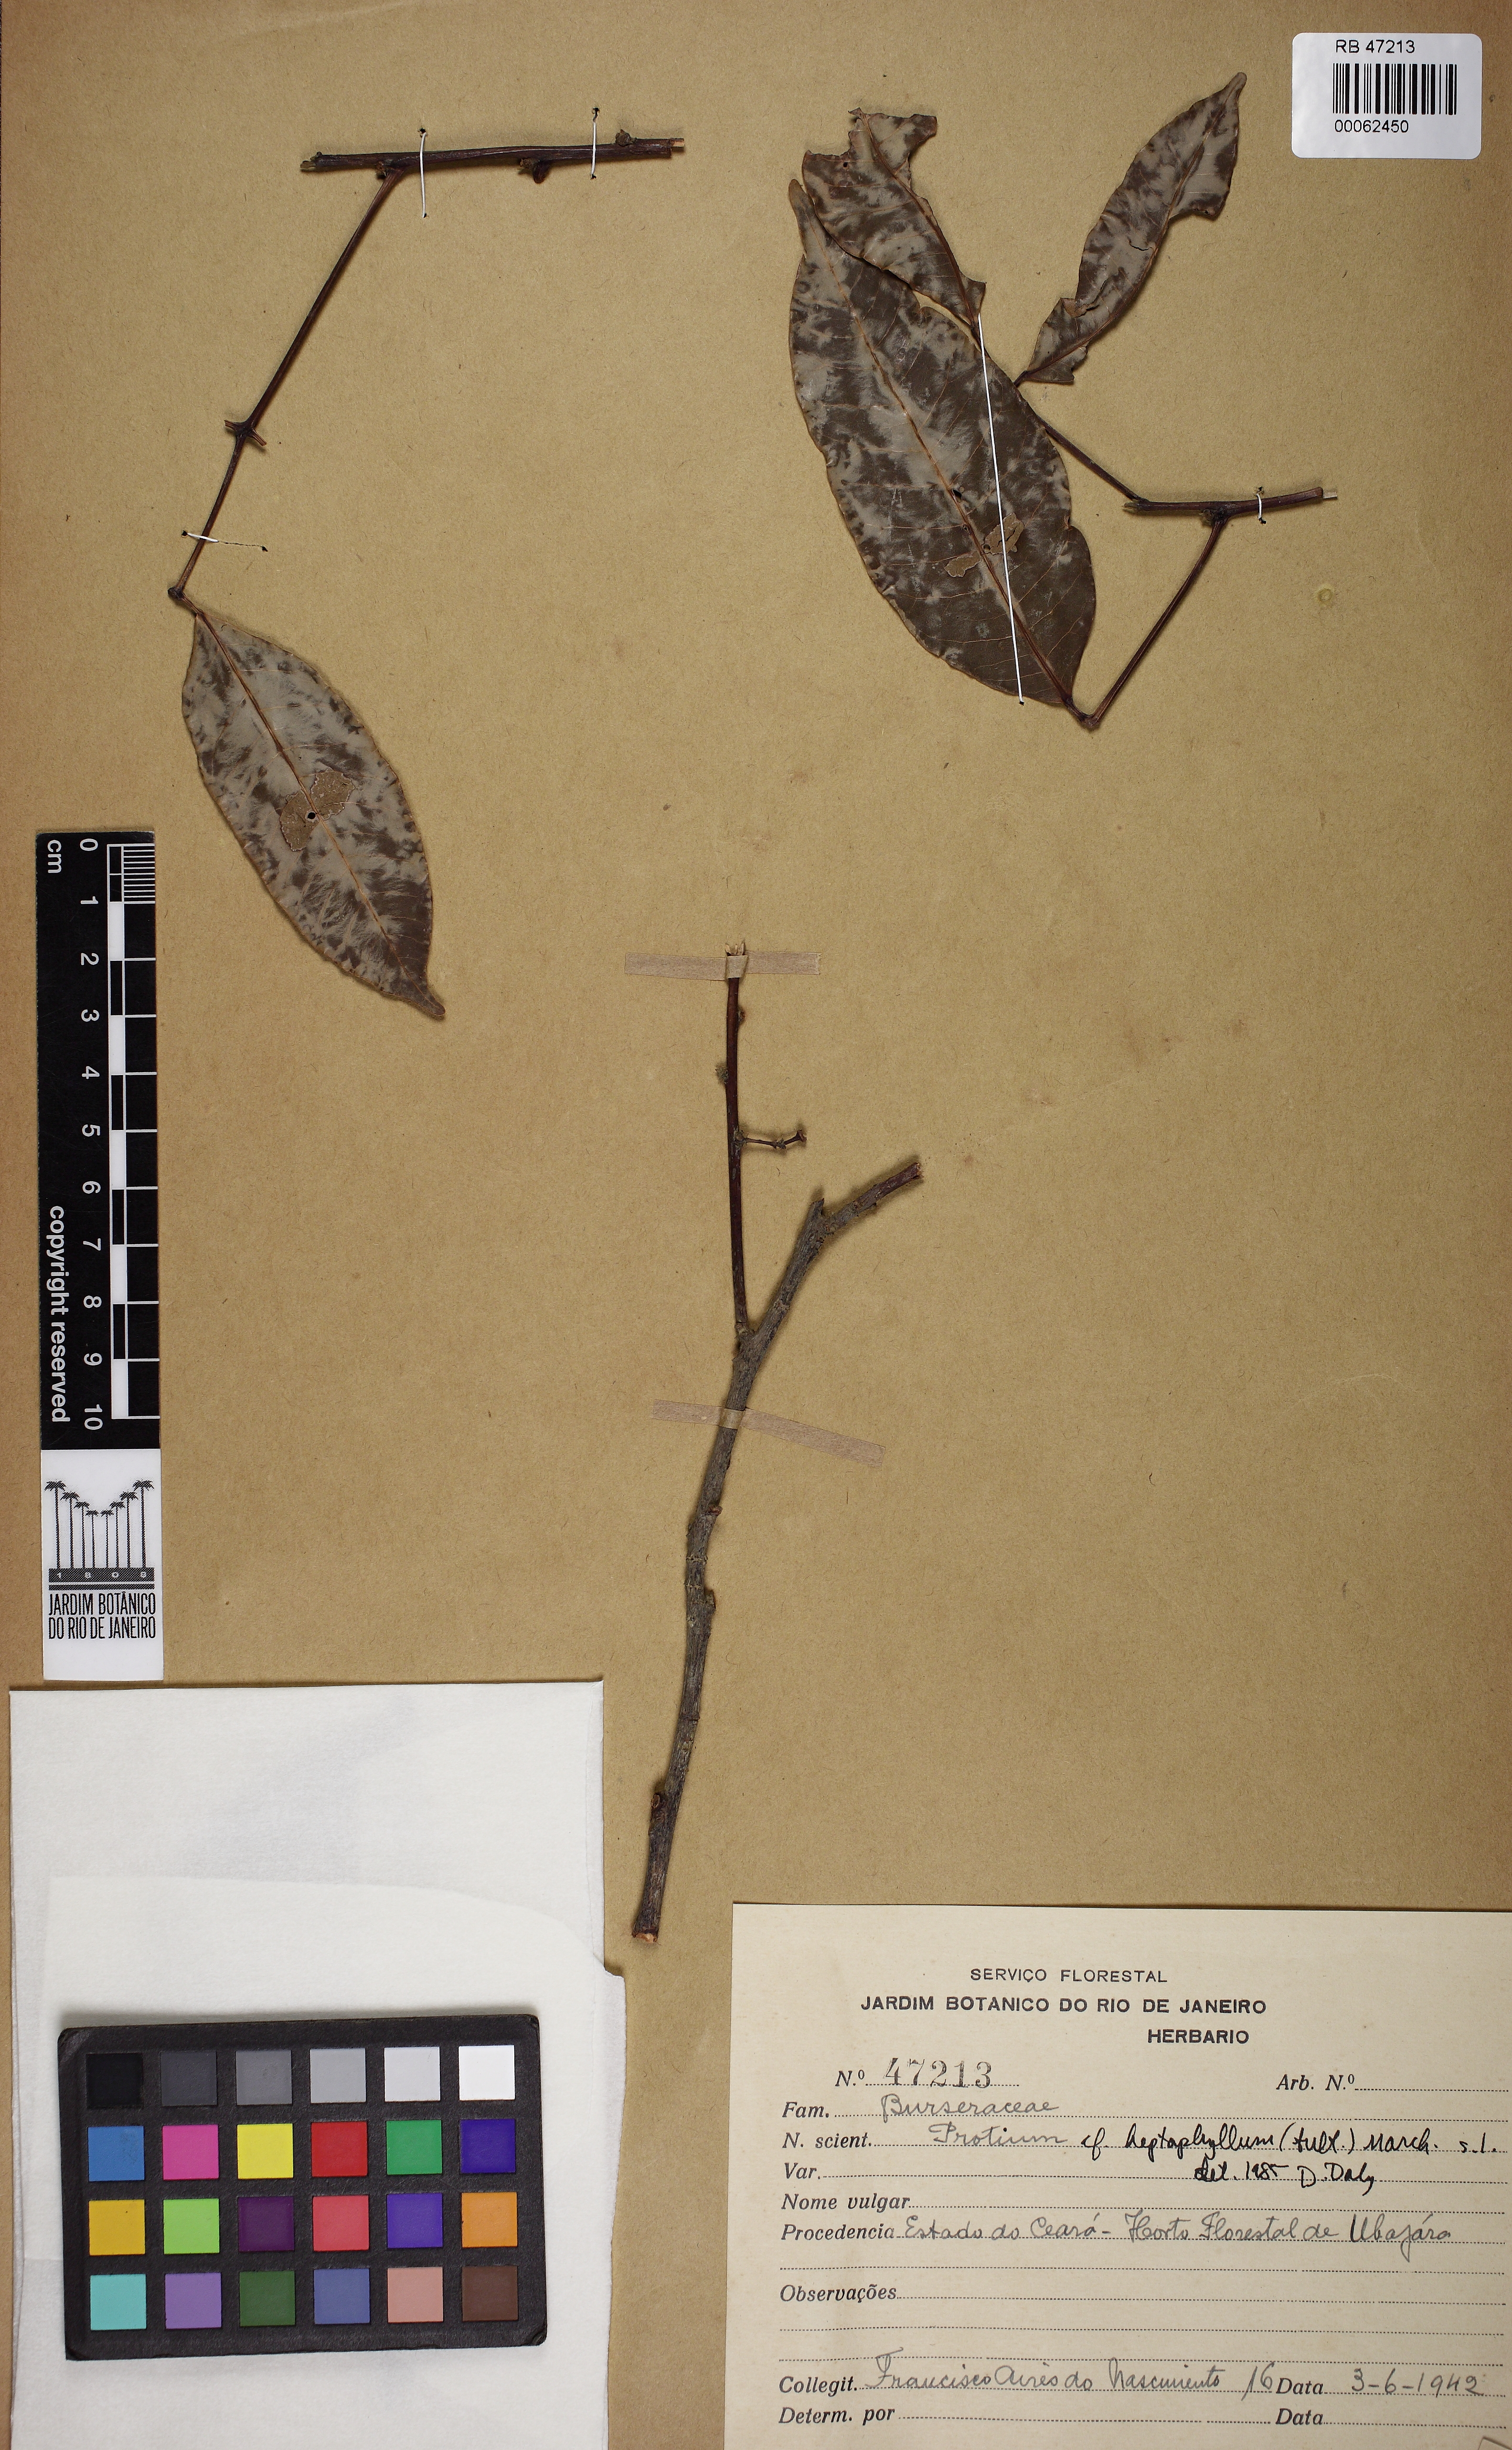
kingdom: Plantae
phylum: Tracheophyta
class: Magnoliopsida
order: Sapindales
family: Burseraceae
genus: Protium
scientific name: Protium heptaphyllum
